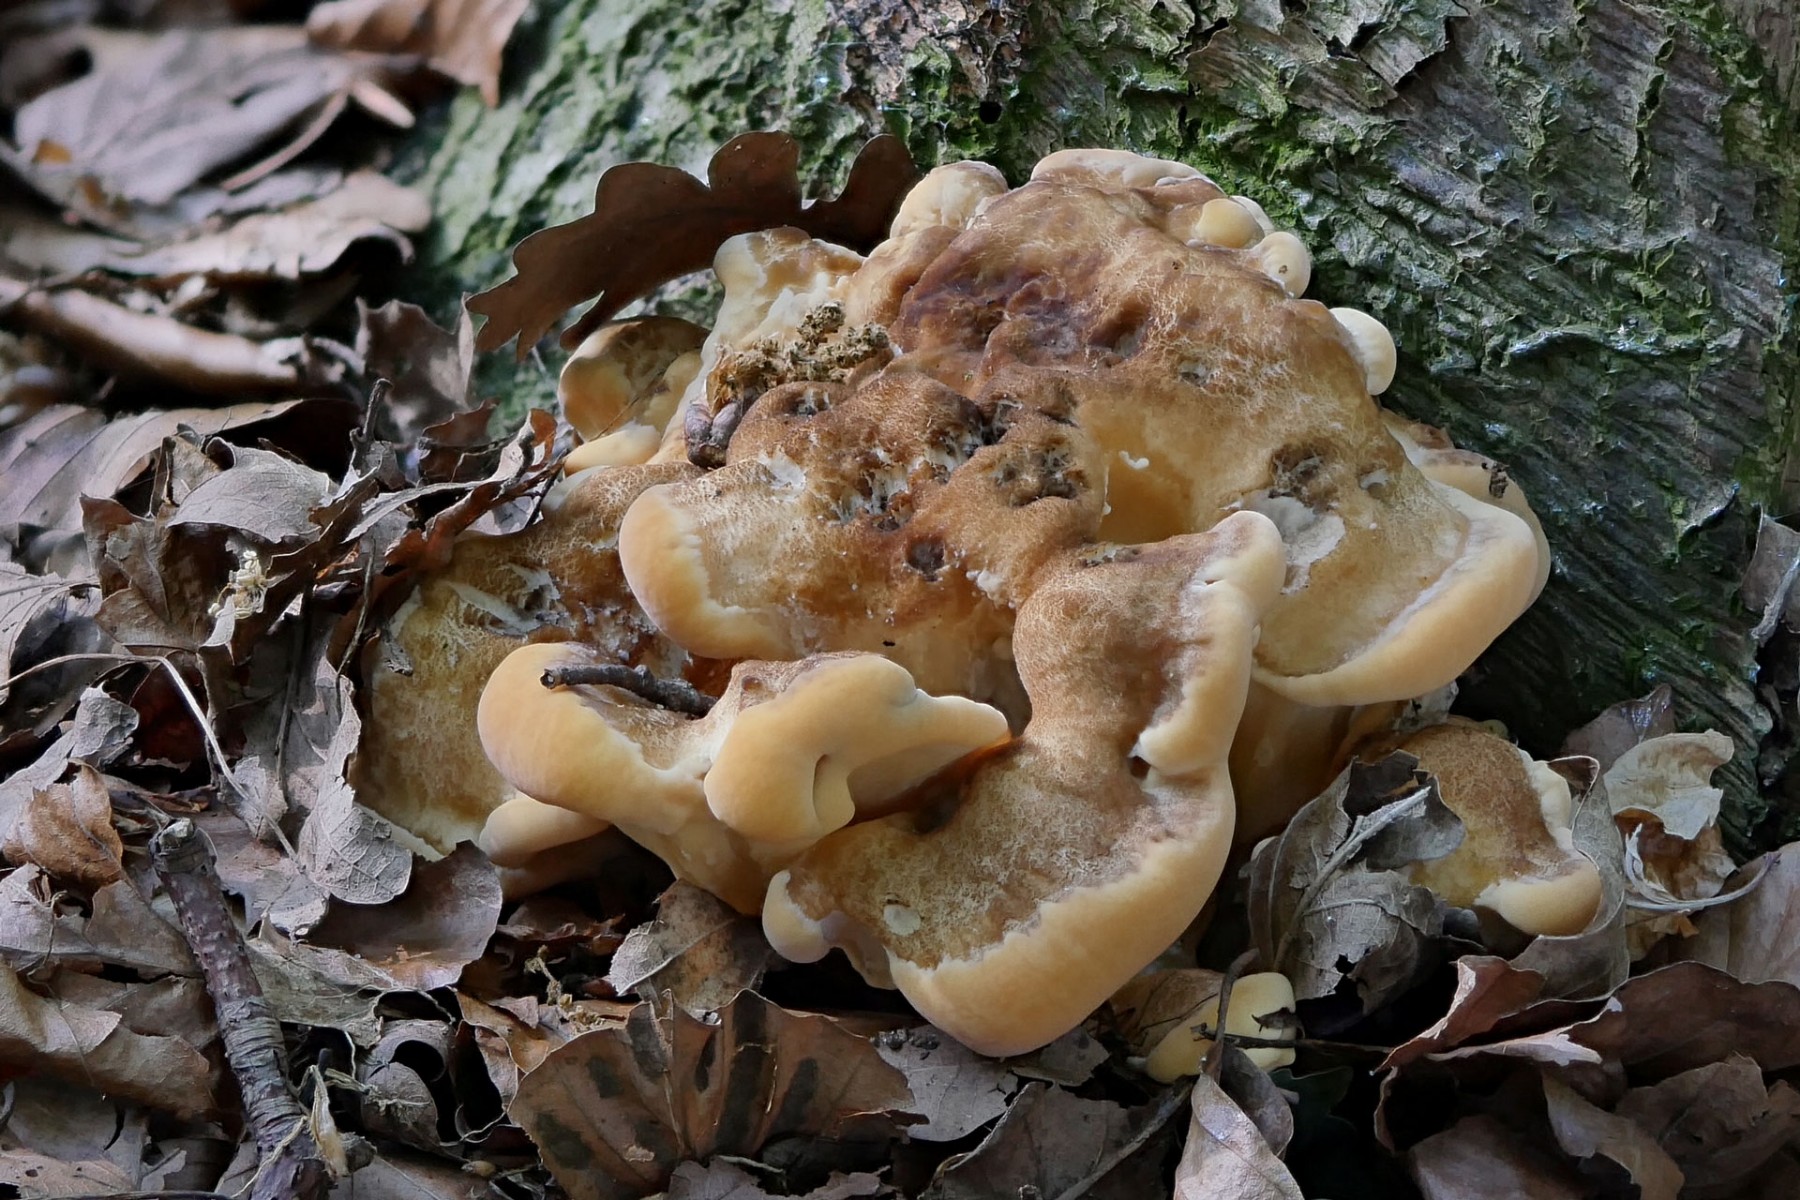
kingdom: Fungi
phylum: Basidiomycota
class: Agaricomycetes
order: Polyporales
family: Meripilaceae
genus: Meripilus
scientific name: Meripilus giganteus
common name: kæmpeporesvamp
